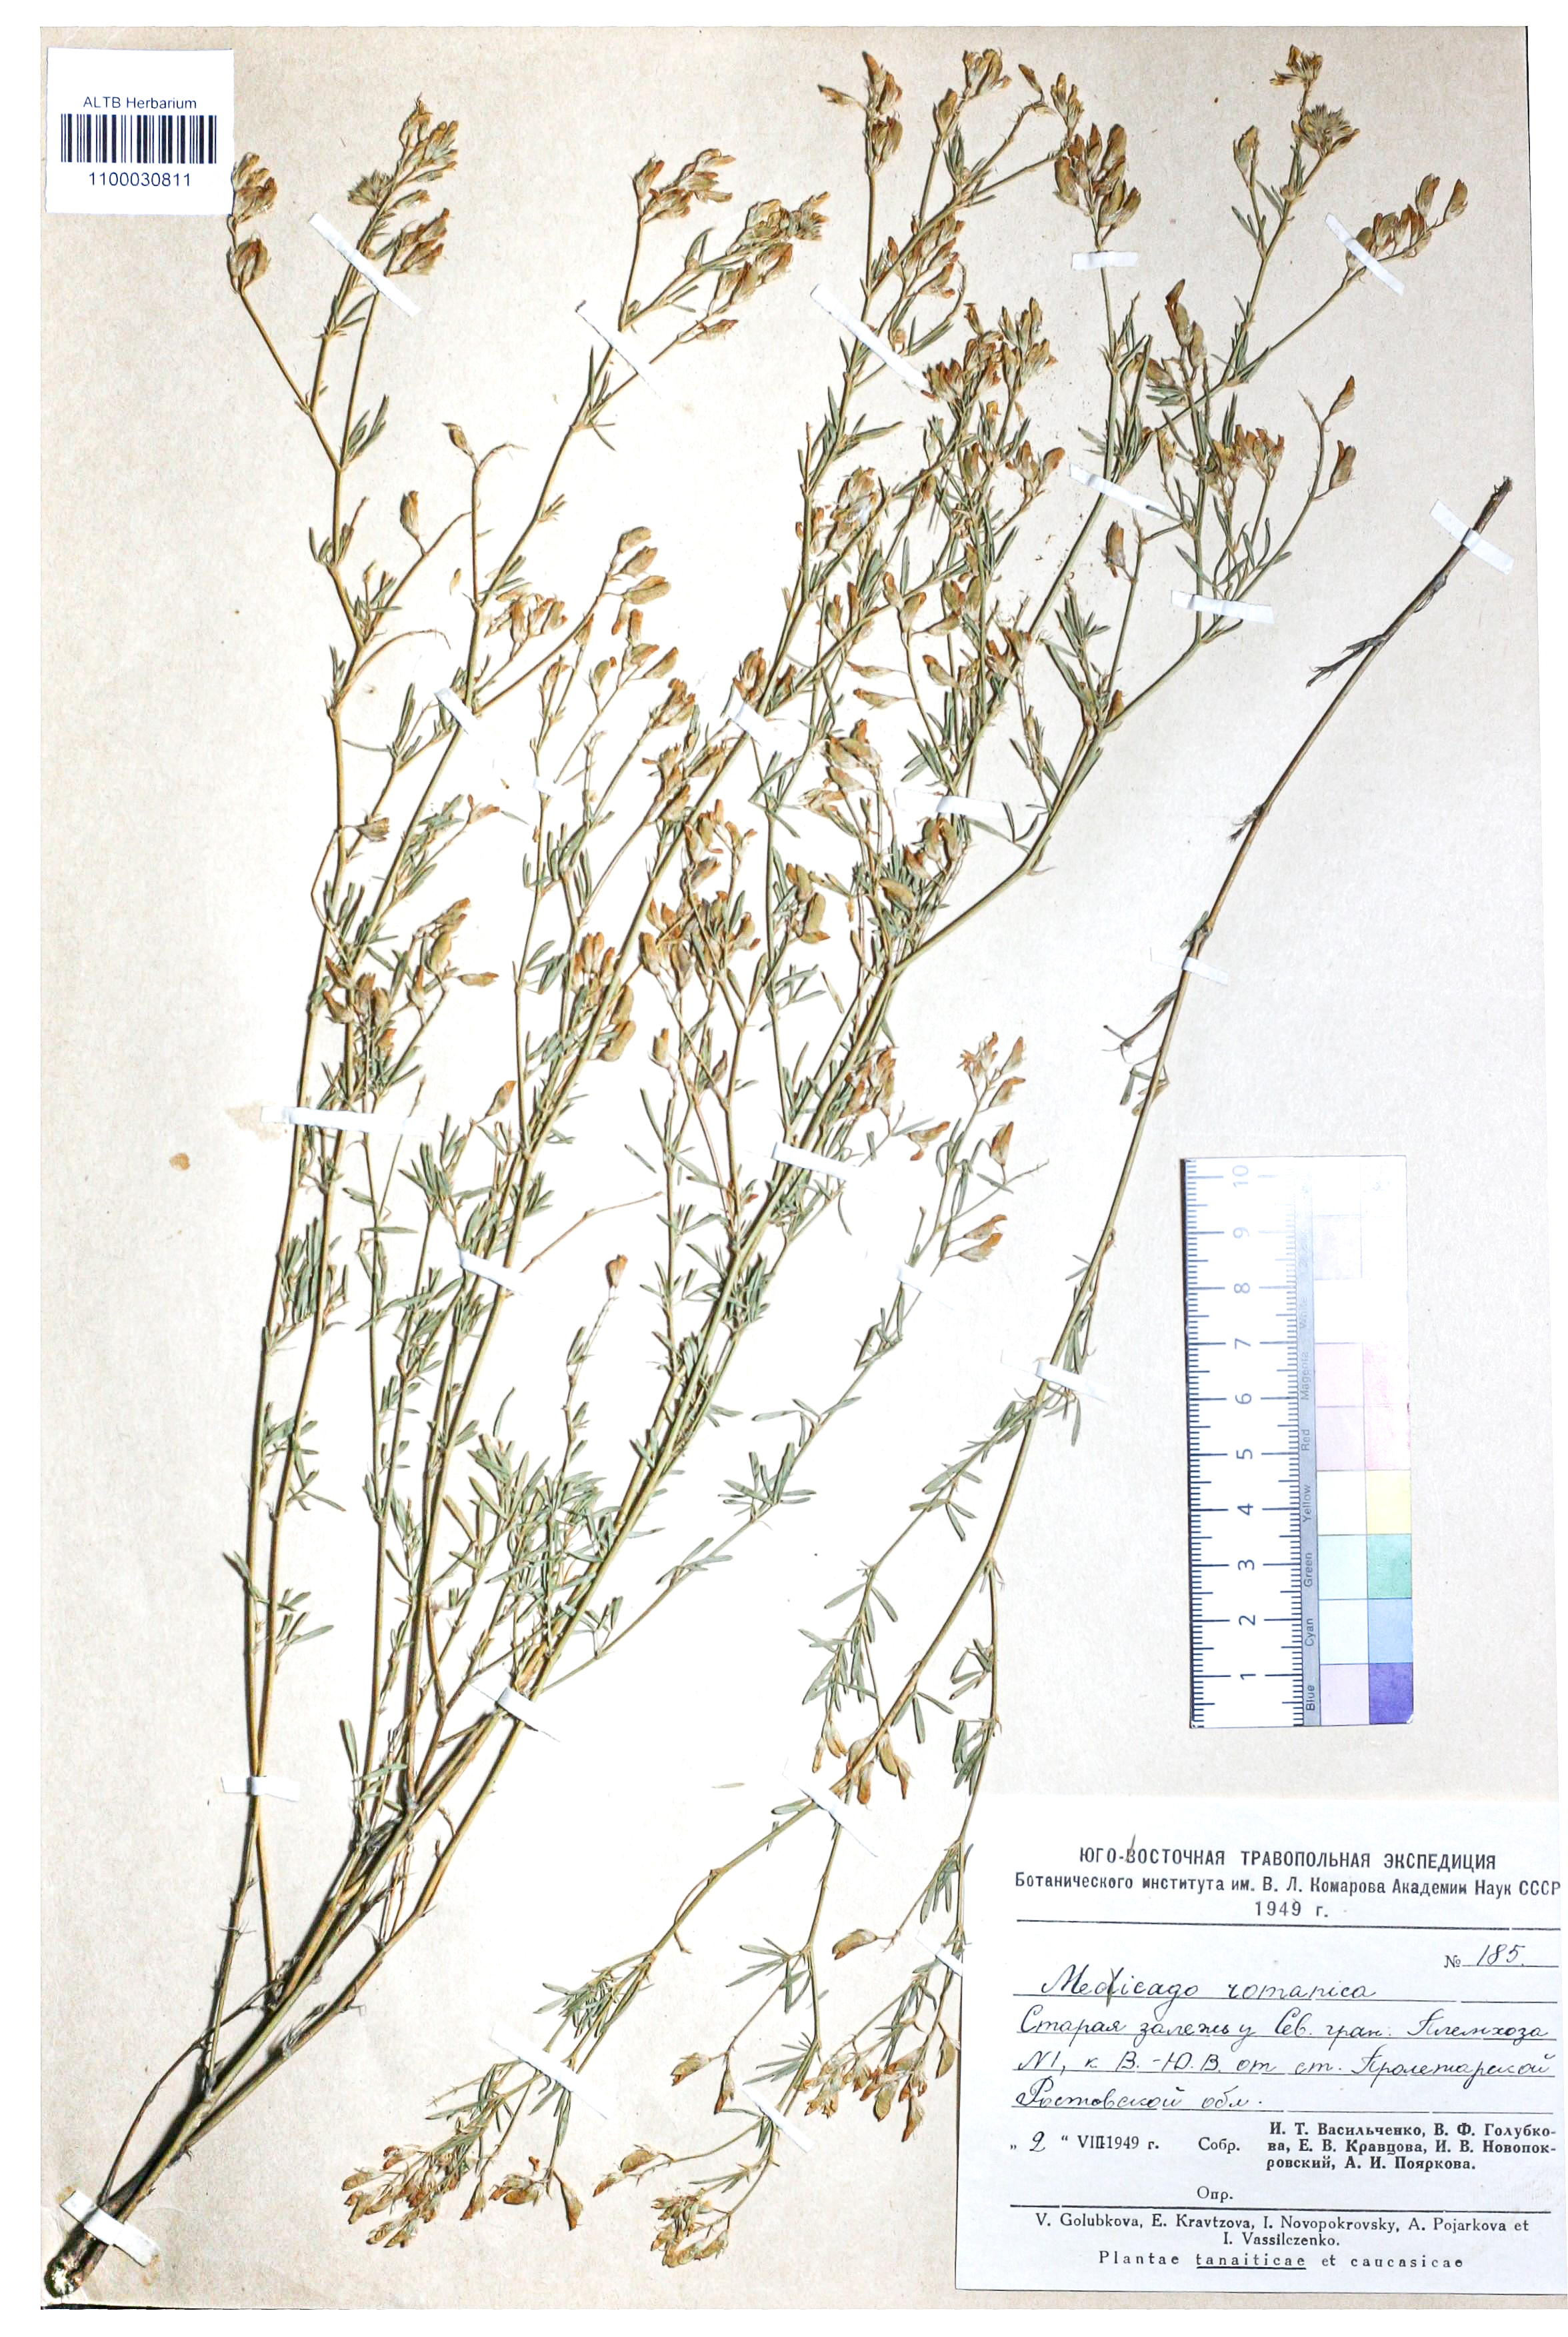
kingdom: Plantae
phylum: Tracheophyta
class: Magnoliopsida
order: Fabales
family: Fabaceae
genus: Medicago
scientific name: Medicago falcata
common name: Sickle medick
